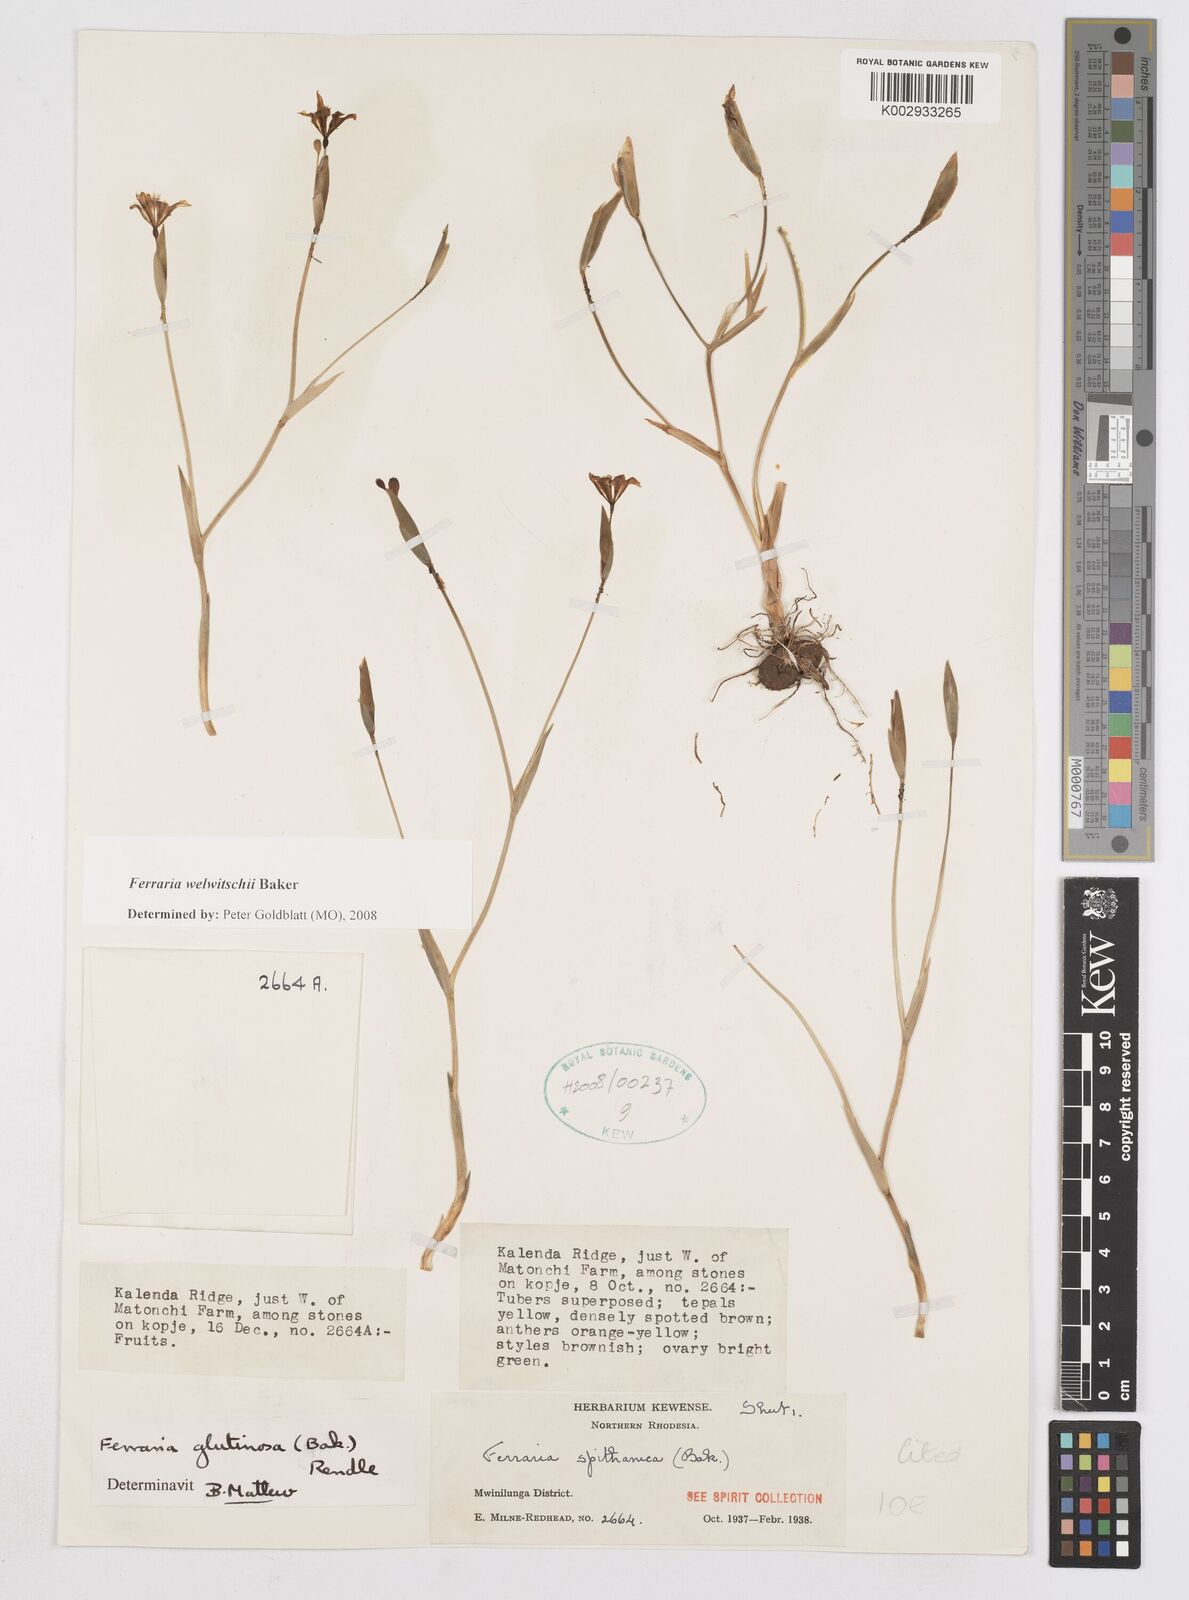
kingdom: Plantae
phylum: Tracheophyta
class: Liliopsida
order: Asparagales
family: Iridaceae
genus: Ferraria
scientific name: Ferraria welwitschii
